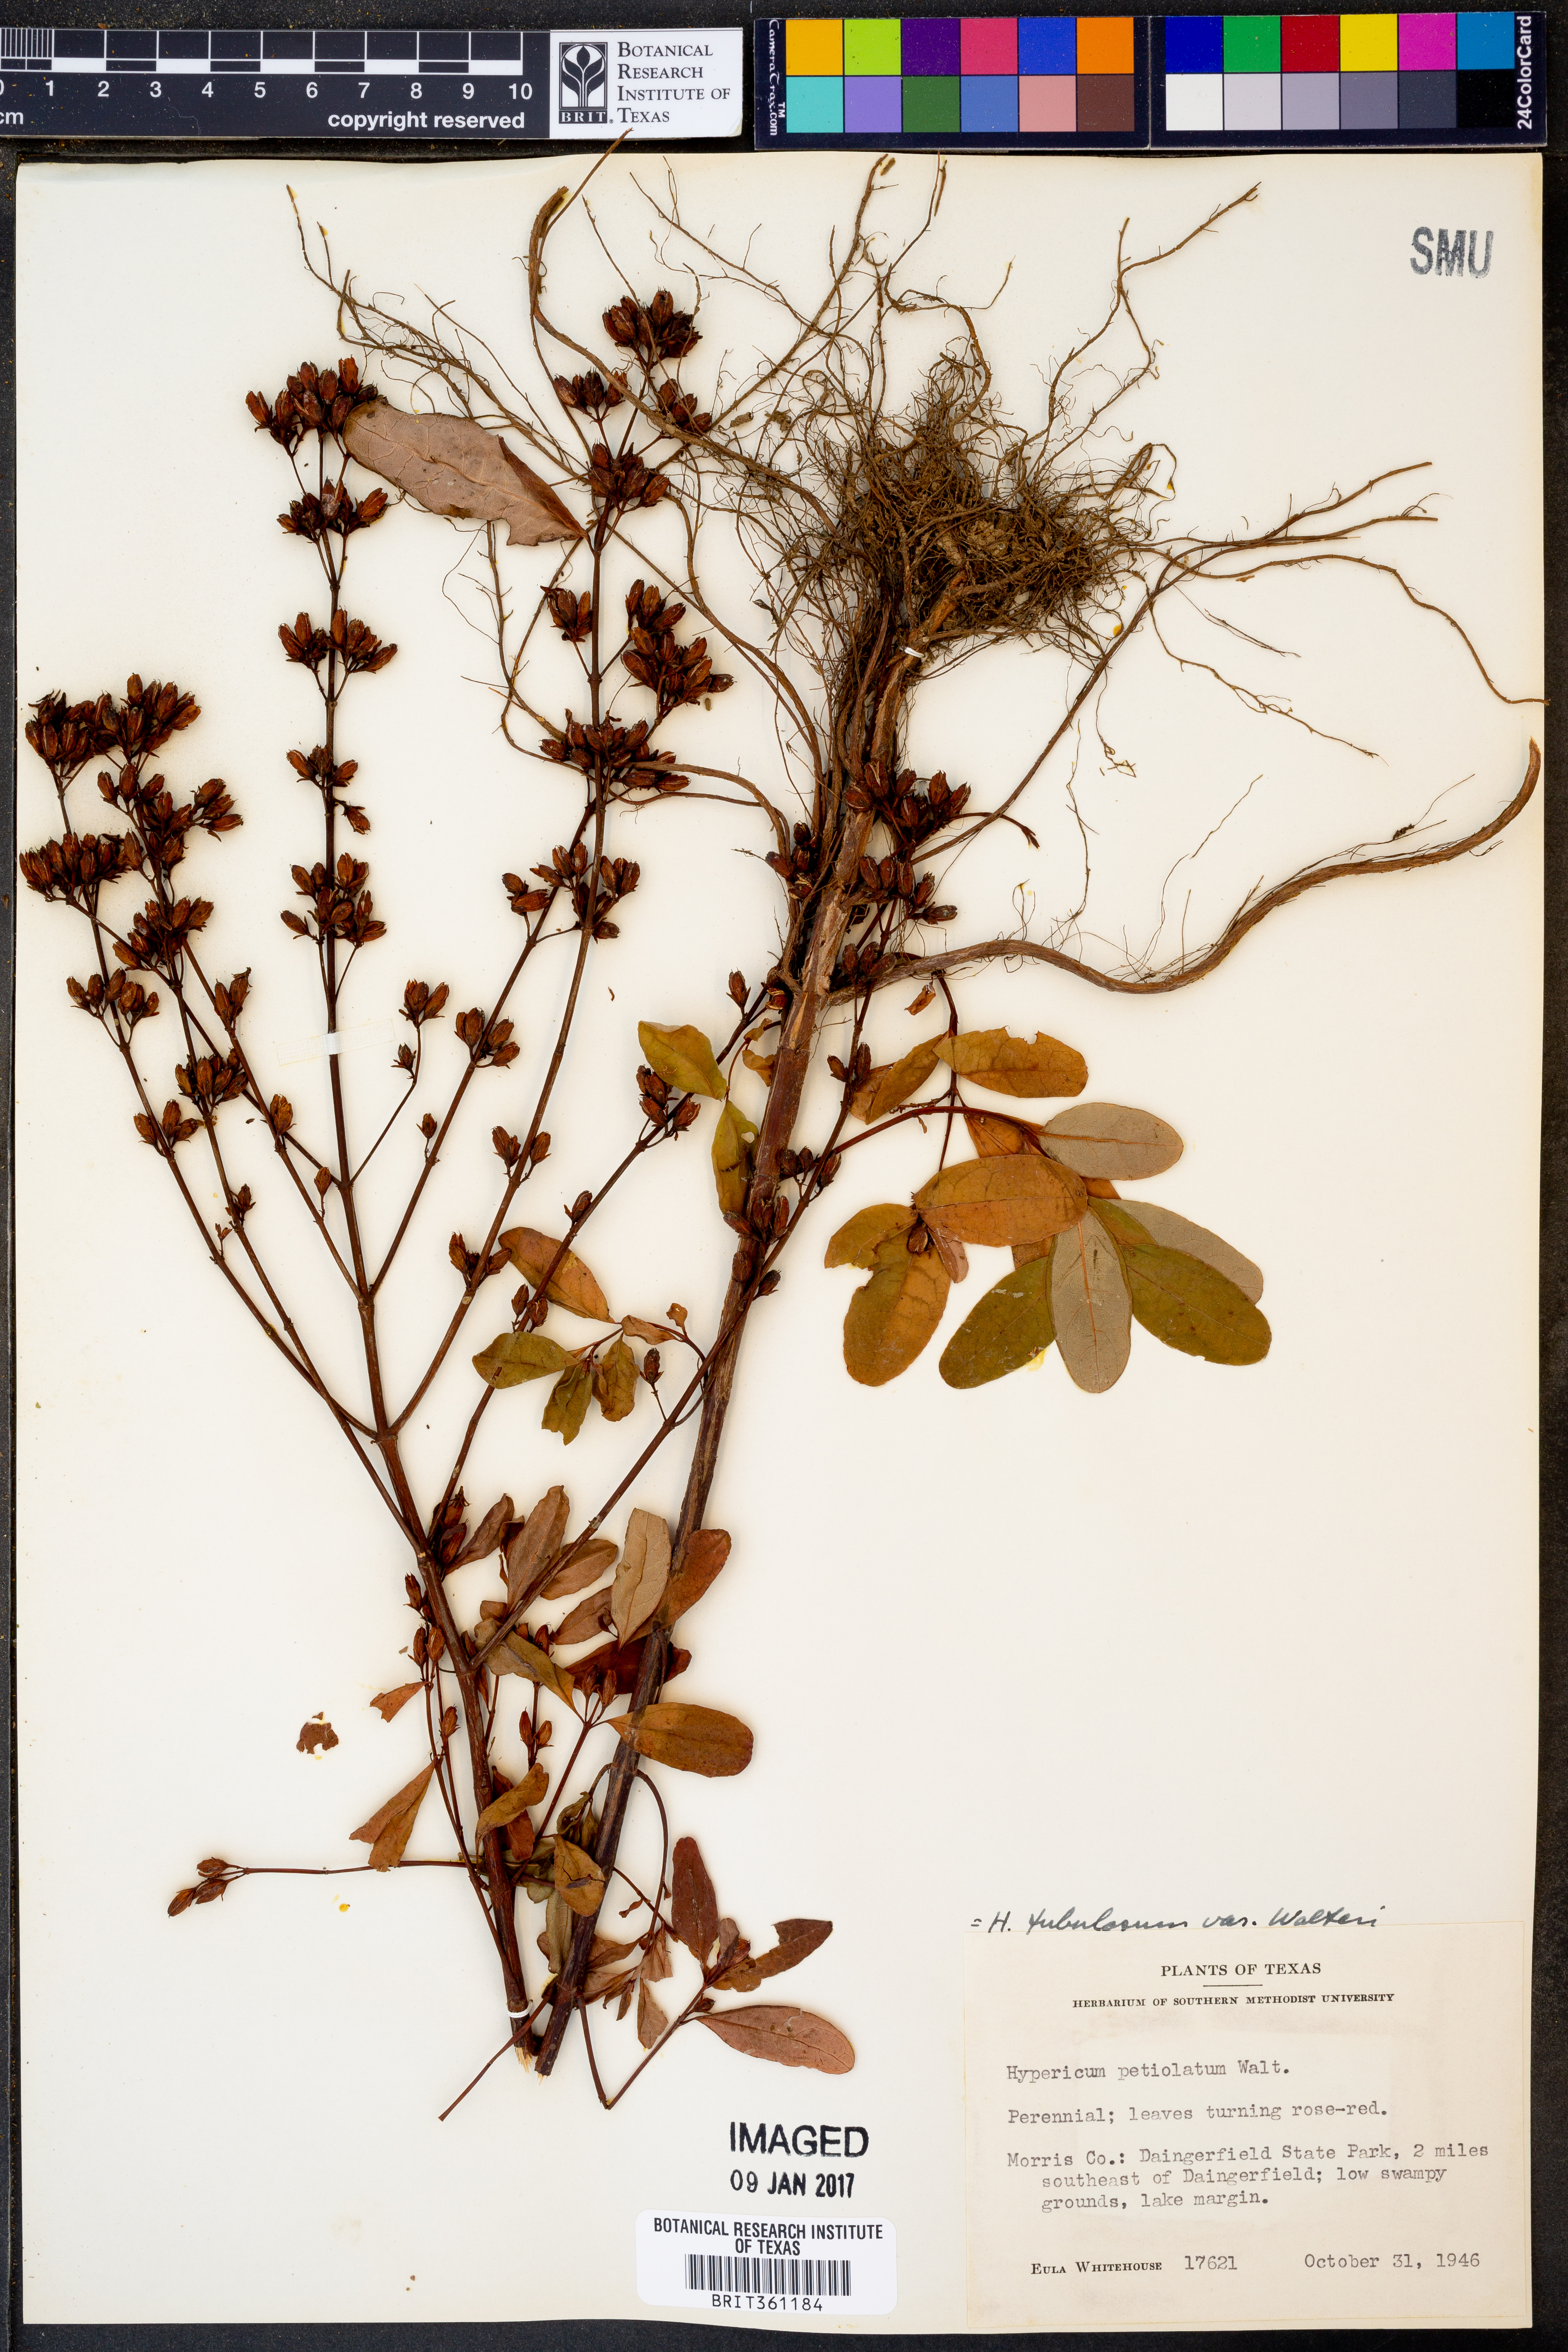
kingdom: Plantae
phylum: Tracheophyta
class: Magnoliopsida
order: Malpighiales
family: Hypericaceae
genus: Triadenum
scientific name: Triadenum walteri
